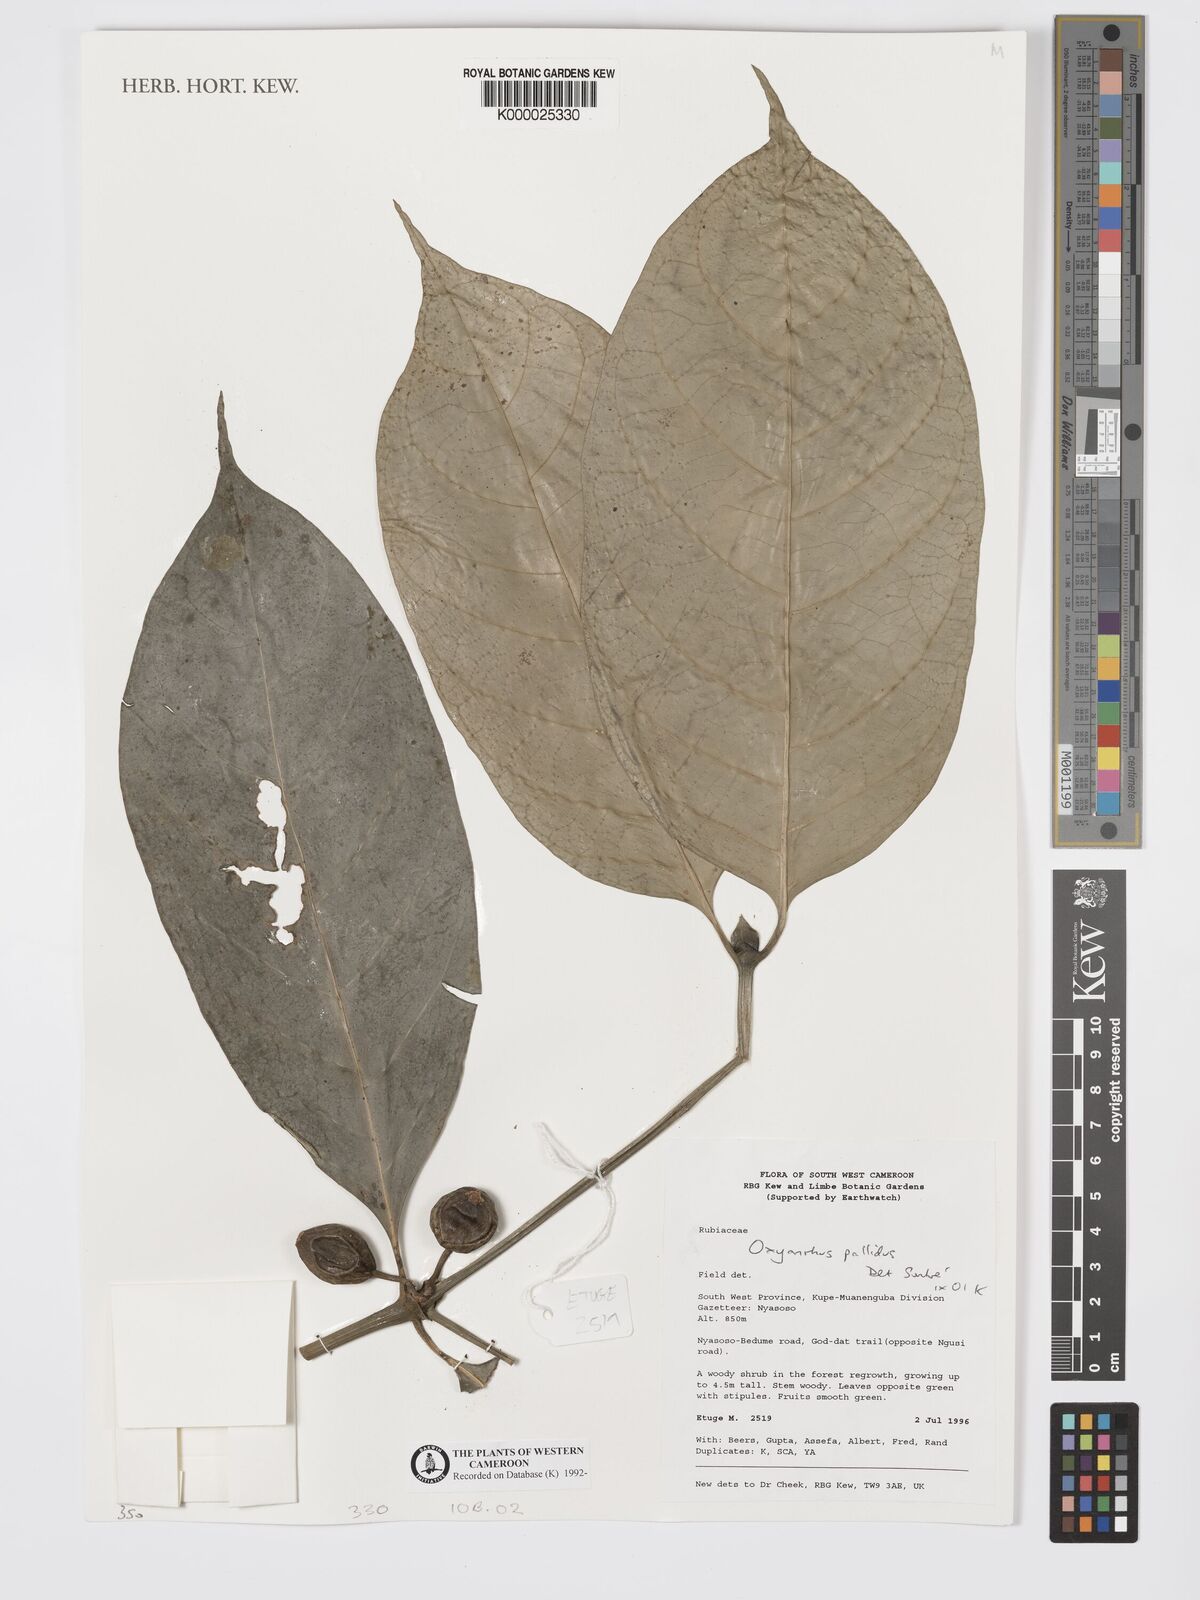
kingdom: Plantae
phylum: Tracheophyta
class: Magnoliopsida
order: Gentianales
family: Rubiaceae
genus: Oxyanthus
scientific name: Oxyanthus pallidus
